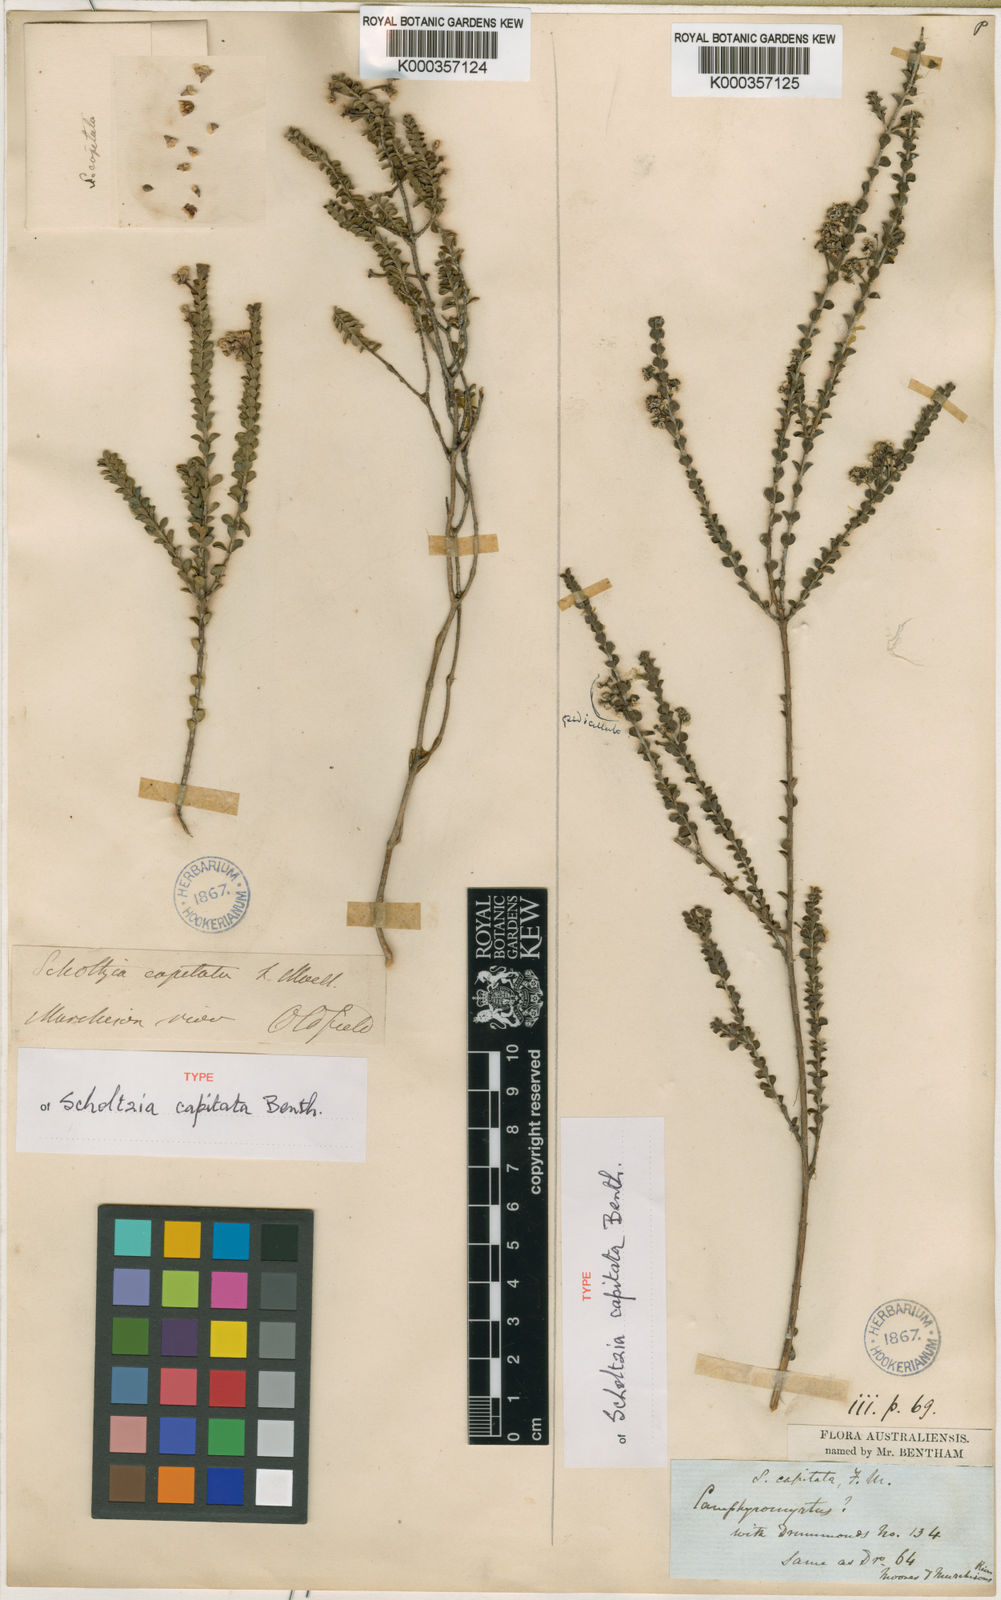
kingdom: Plantae
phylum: Tracheophyta
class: Magnoliopsida
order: Myrtales
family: Myrtaceae
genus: Scholtzia
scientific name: Scholtzia capitata
